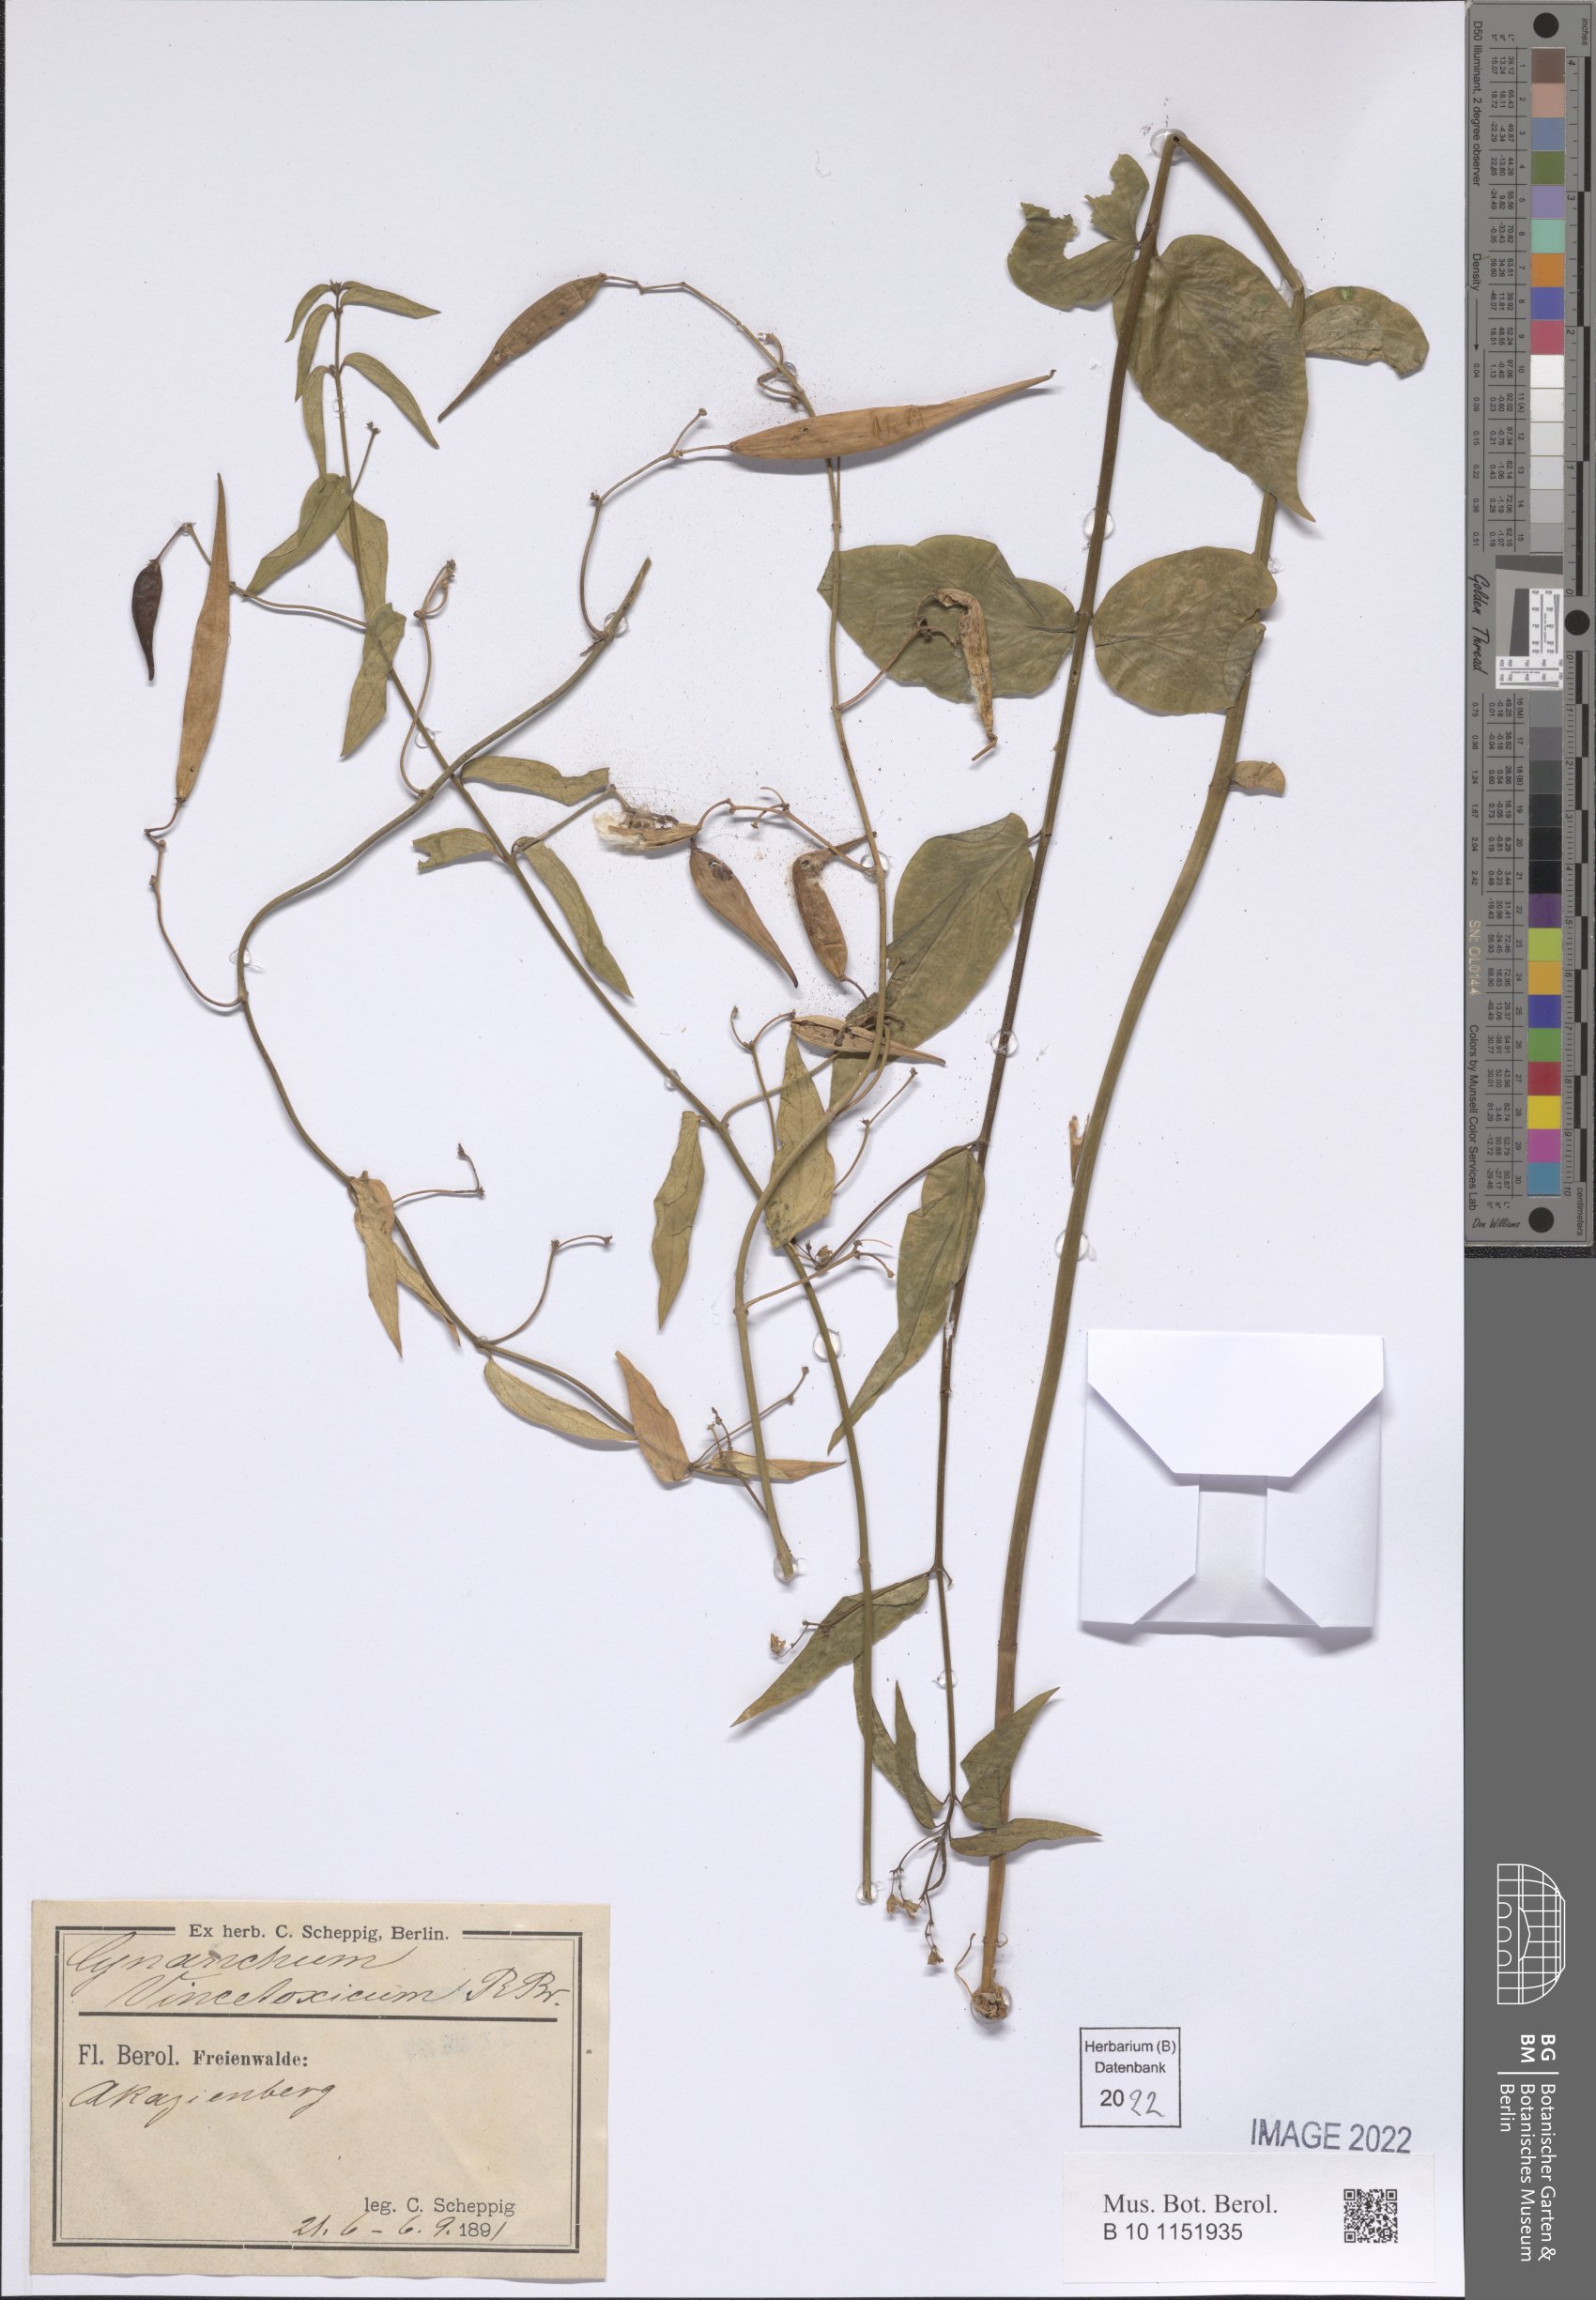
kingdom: Plantae
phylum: Tracheophyta
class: Magnoliopsida
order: Gentianales
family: Apocynaceae
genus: Vincetoxicum
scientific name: Vincetoxicum hirundinaria
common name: White swallowwort
